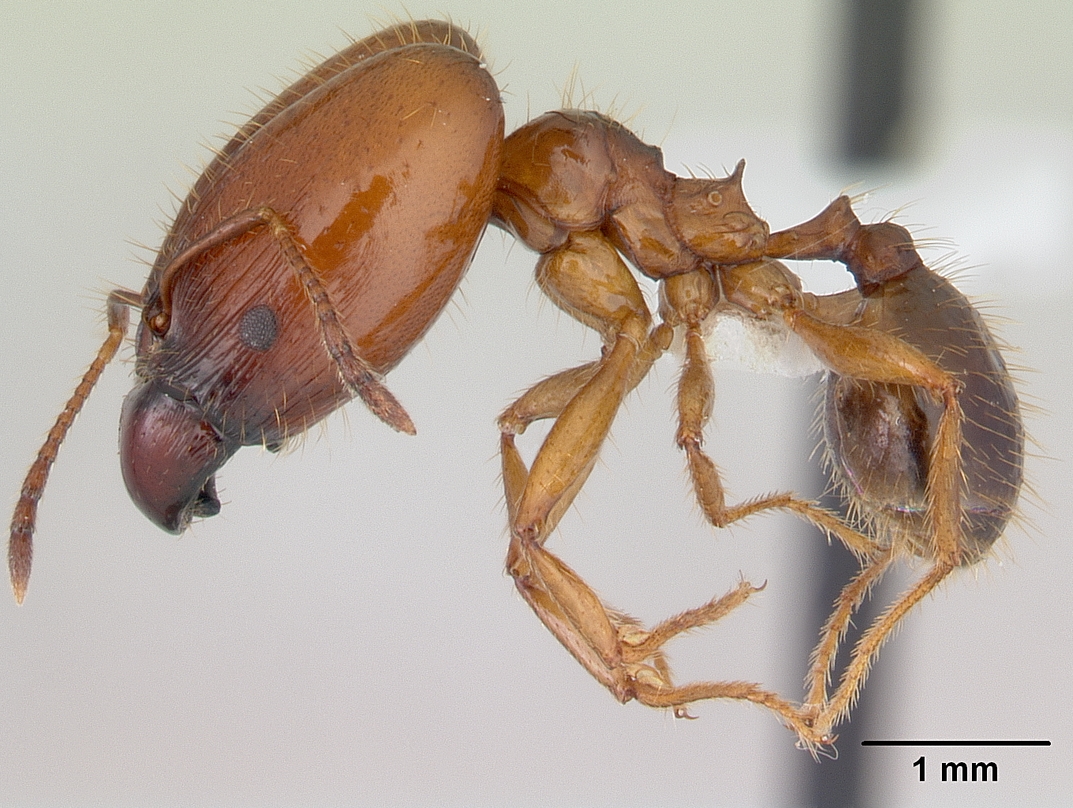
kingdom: Animalia
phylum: Arthropoda
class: Insecta
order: Hymenoptera
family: Formicidae
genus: Pheidole
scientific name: Pheidole cornicula
